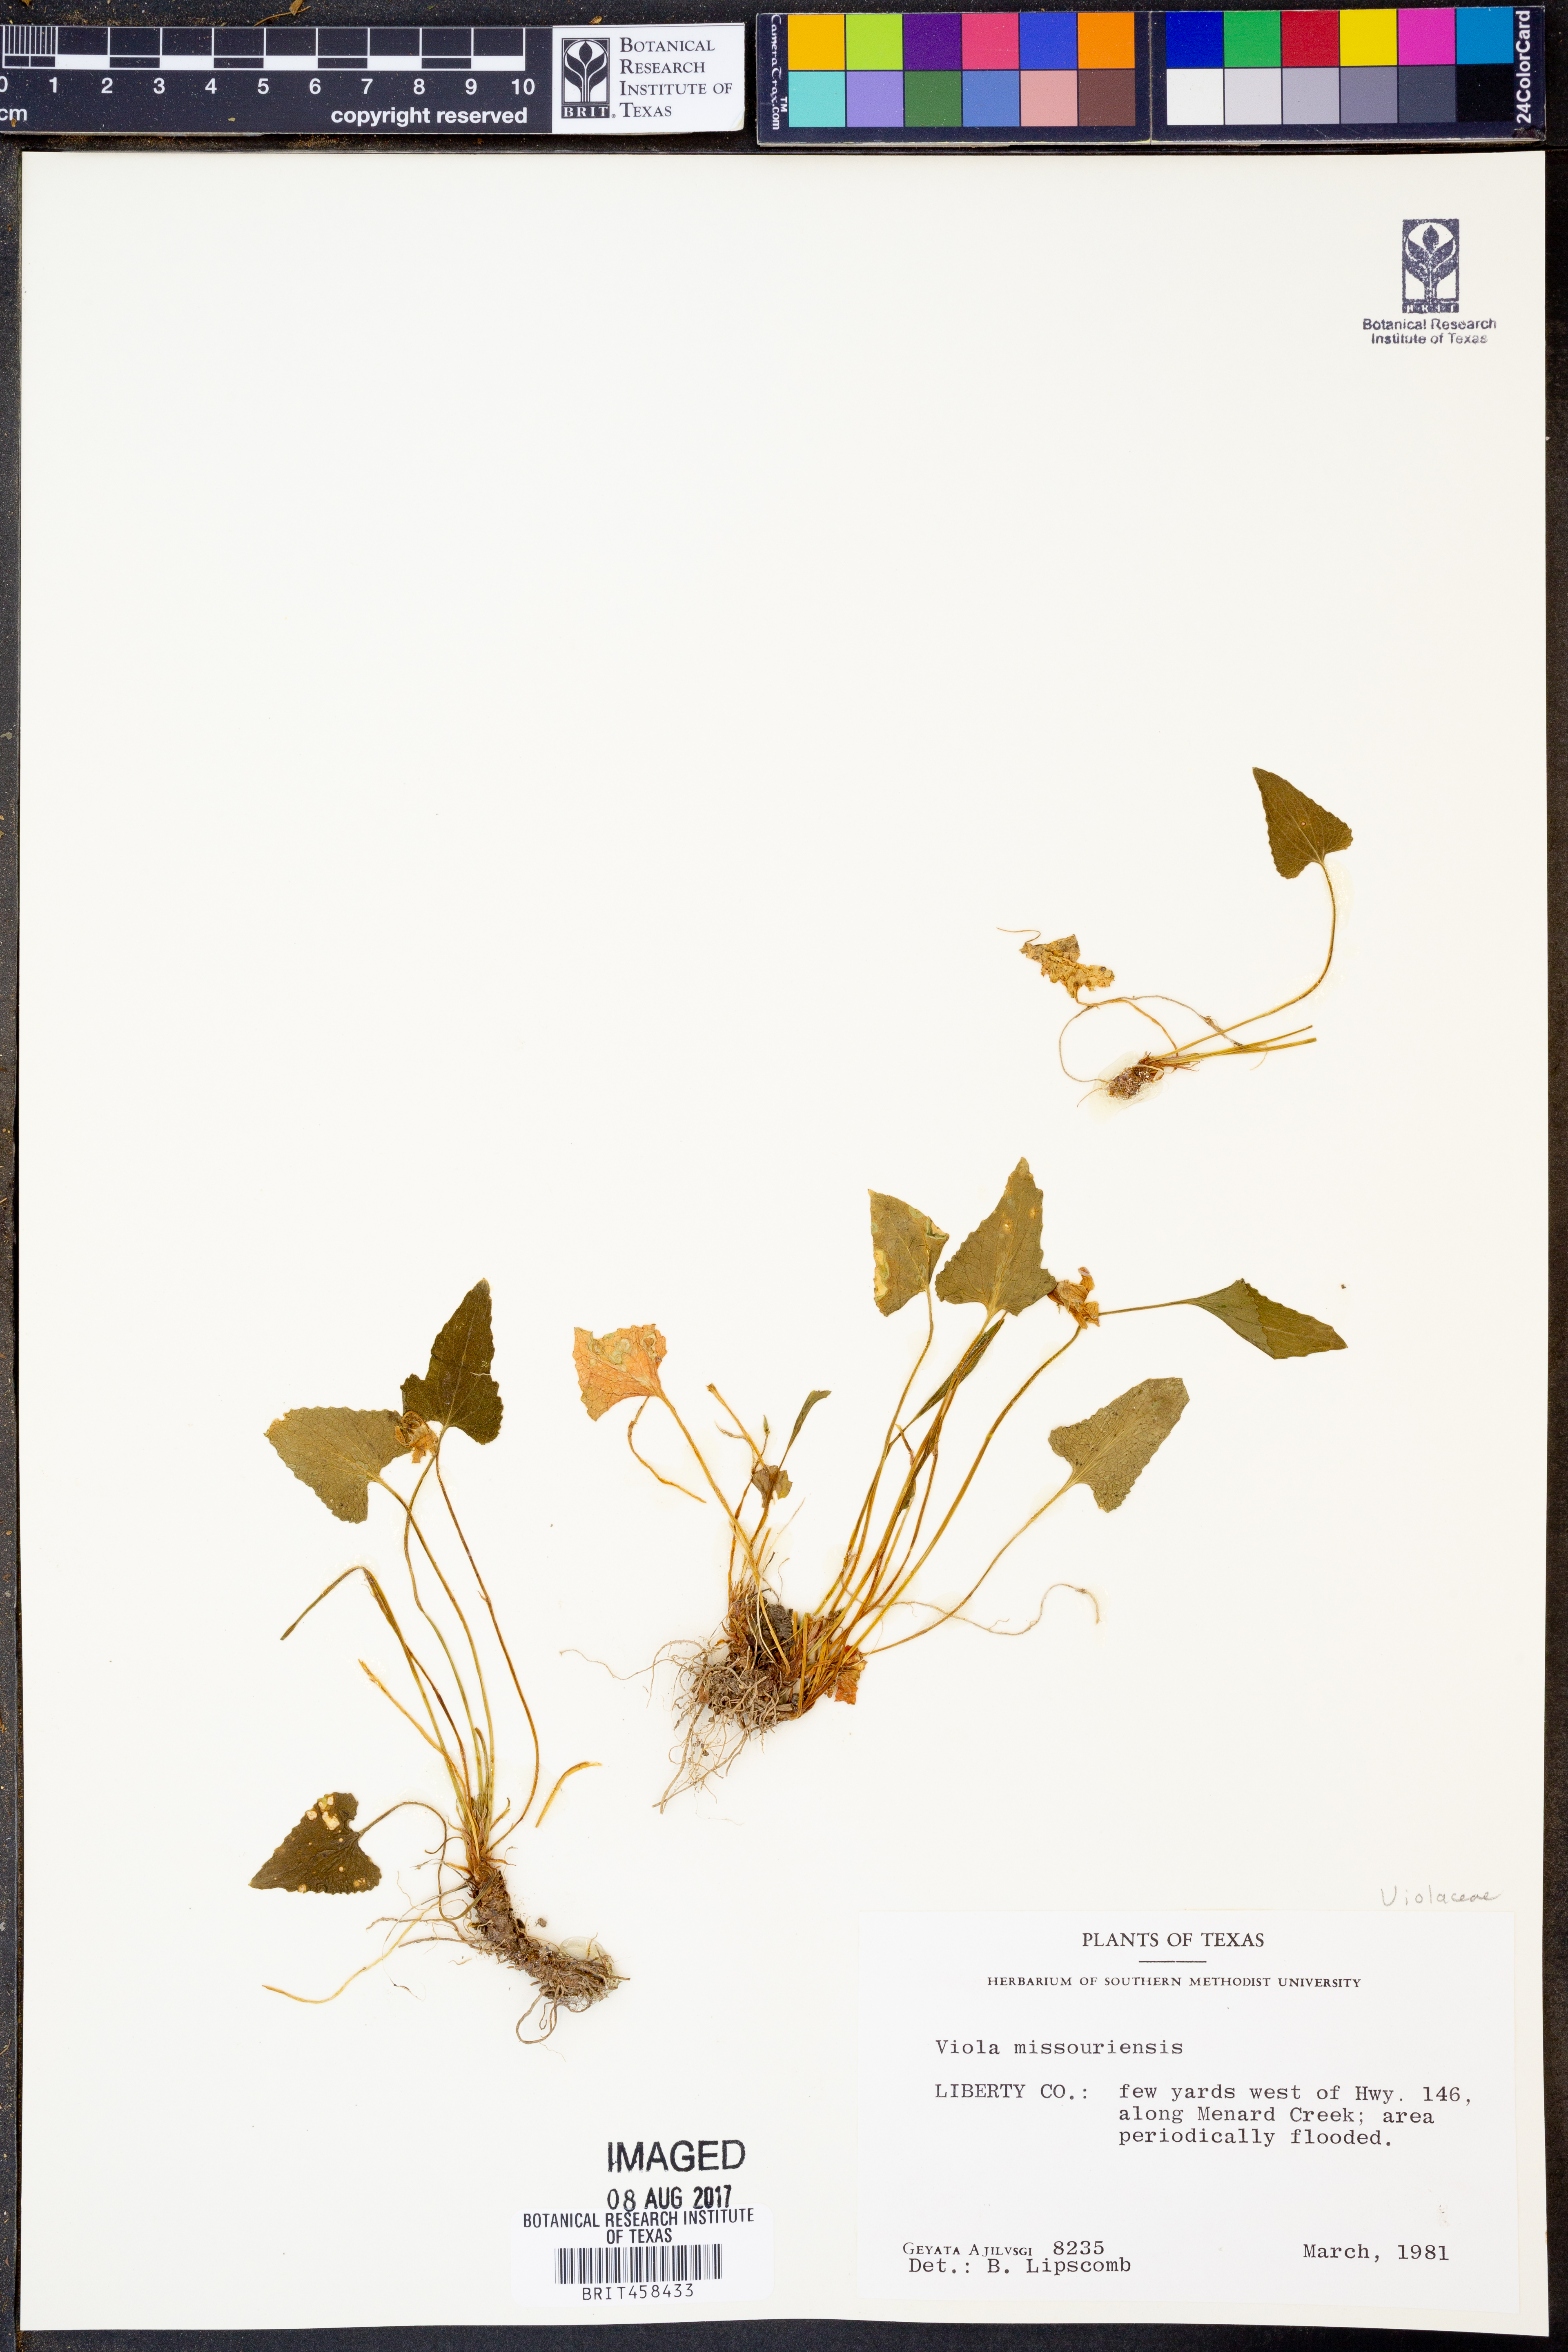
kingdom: Plantae
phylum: Tracheophyta
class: Magnoliopsida
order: Malpighiales
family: Violaceae
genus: Viola
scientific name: Viola missouriensis
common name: Missouri violet
